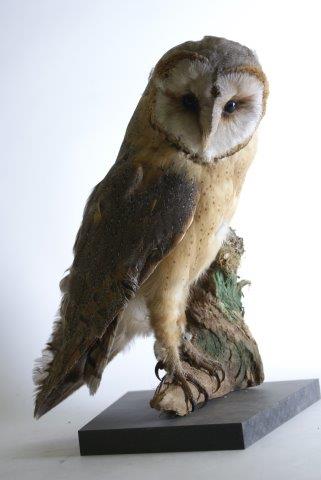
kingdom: Animalia
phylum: Chordata
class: Aves
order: Strigiformes
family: Tytonidae
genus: Tyto
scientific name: Tyto alba
